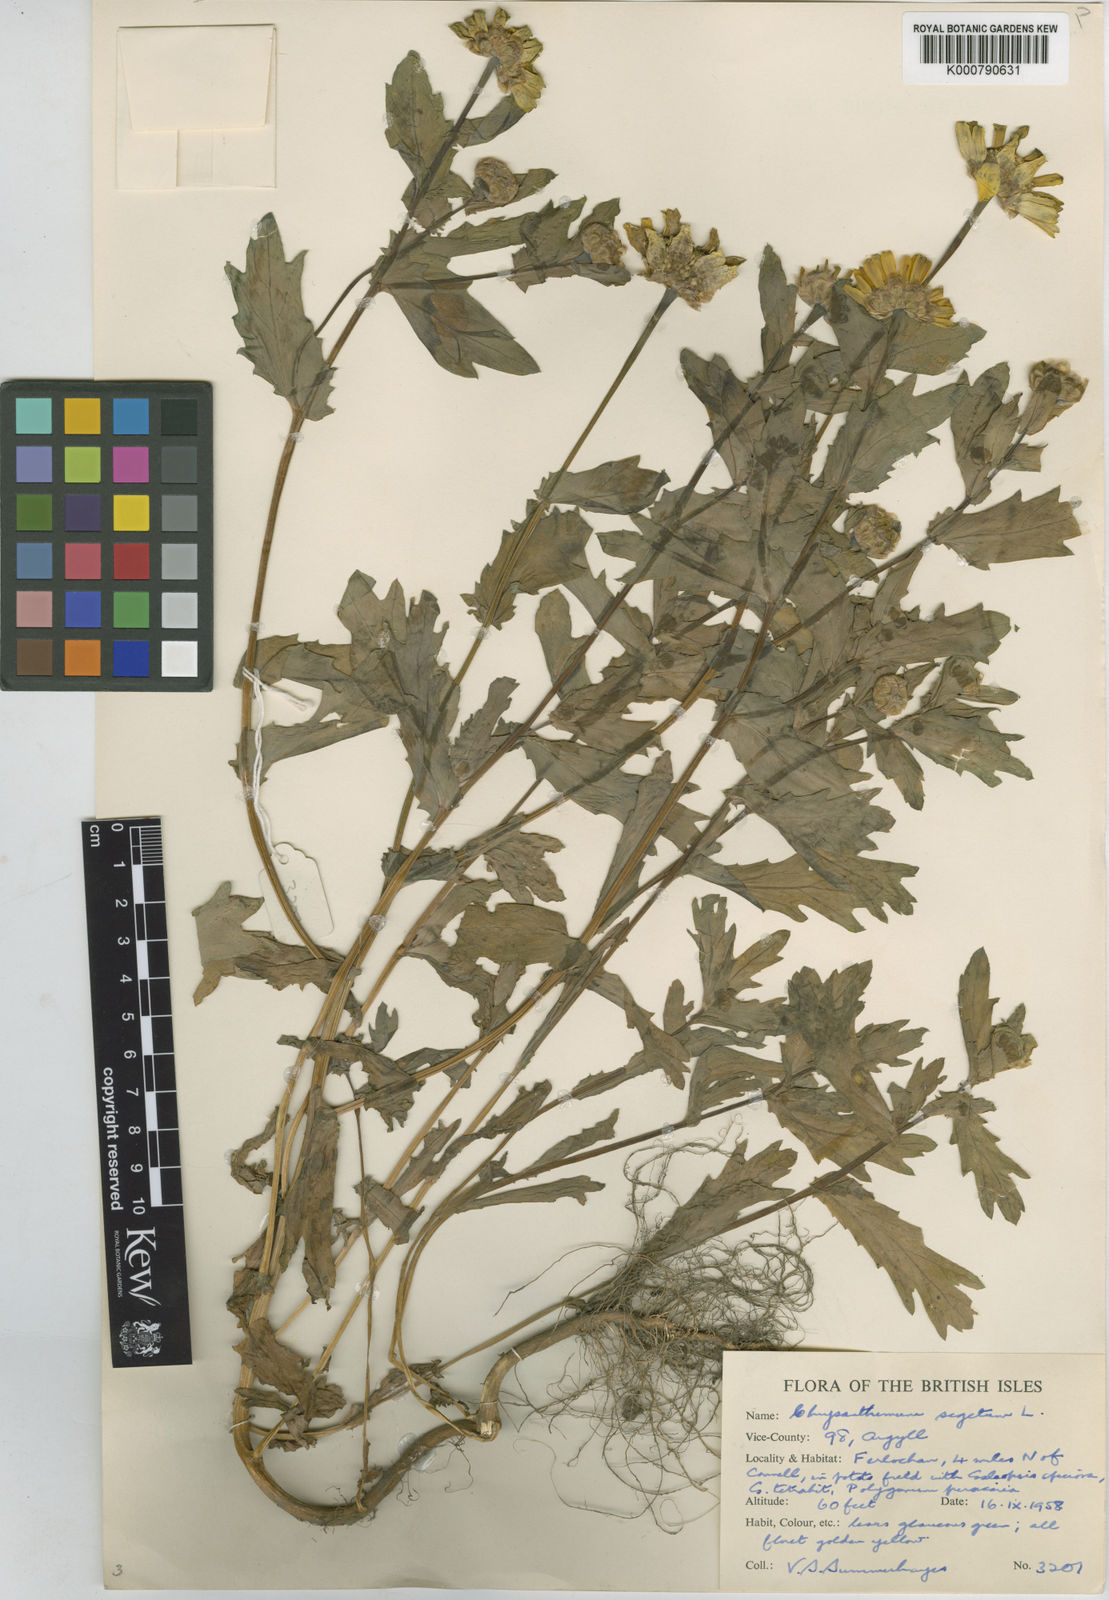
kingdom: Plantae
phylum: Tracheophyta
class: Magnoliopsida
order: Asterales
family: Asteraceae
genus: Glebionis
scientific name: Glebionis
